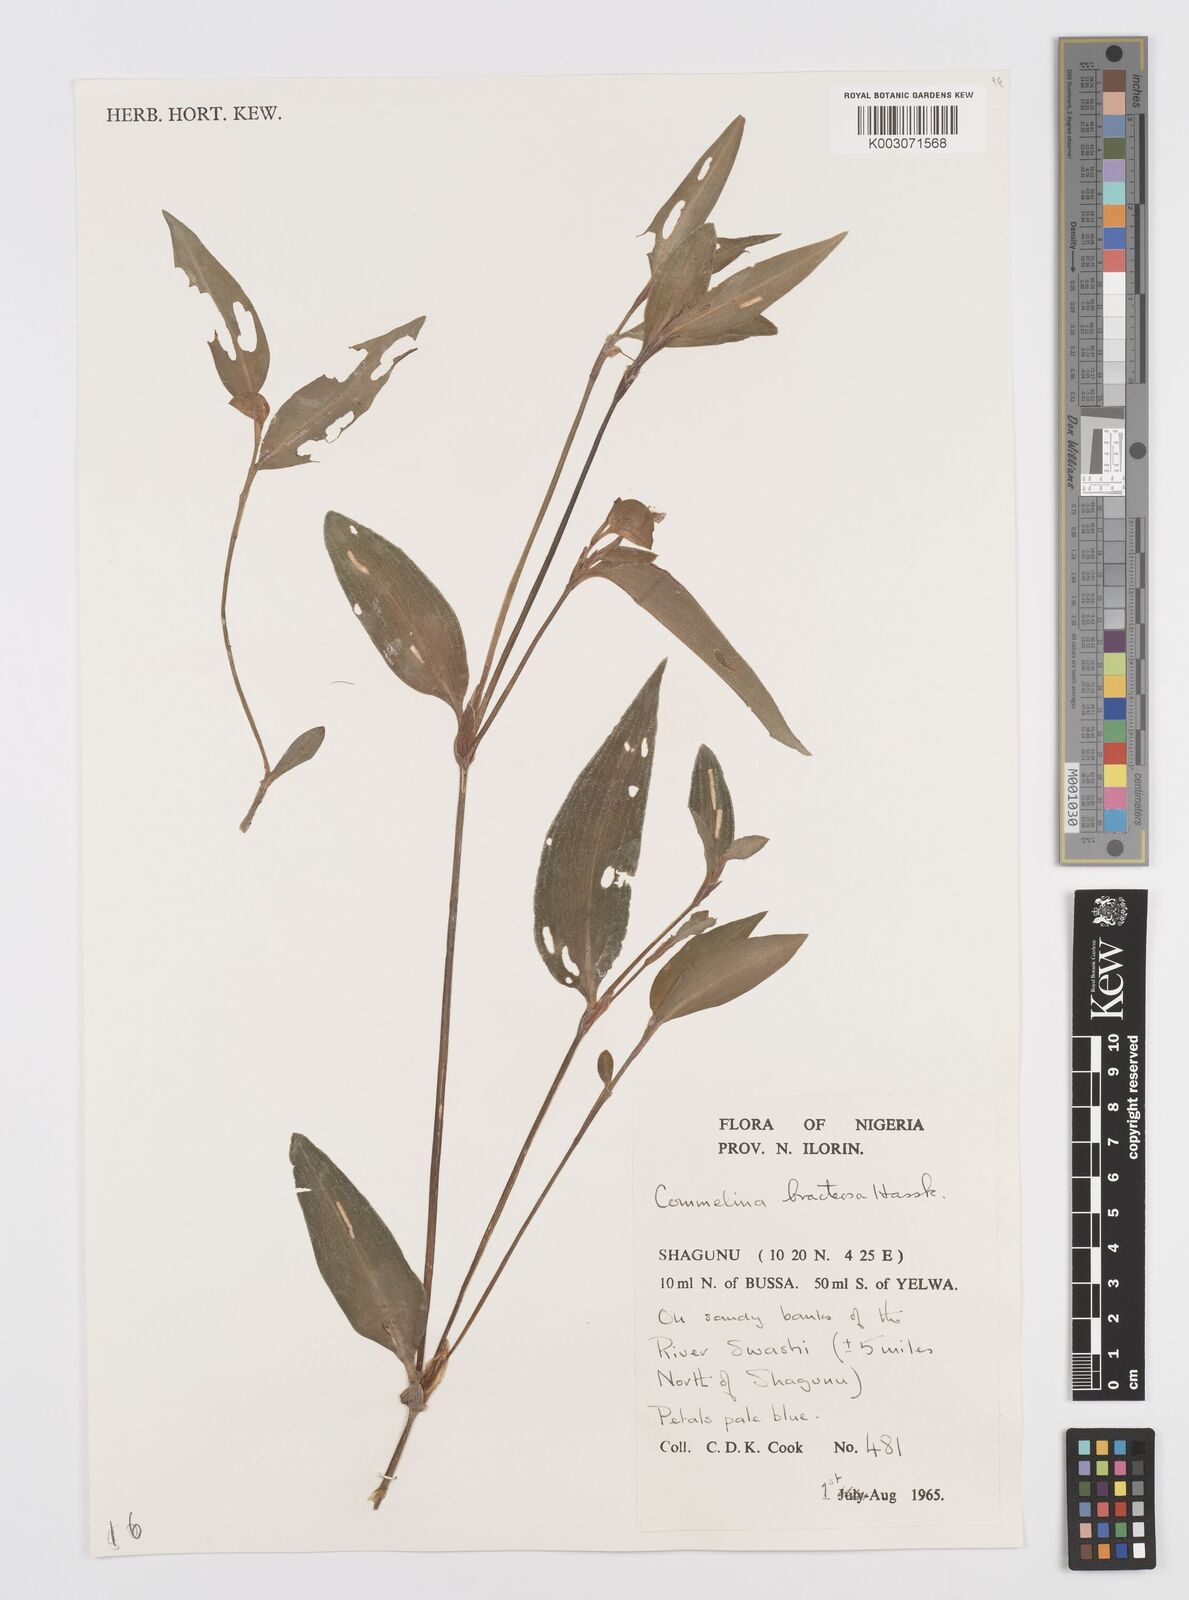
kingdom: Plantae
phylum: Tracheophyta
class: Liliopsida
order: Commelinales
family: Commelinaceae
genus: Commelina
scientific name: Commelina bracteosa
